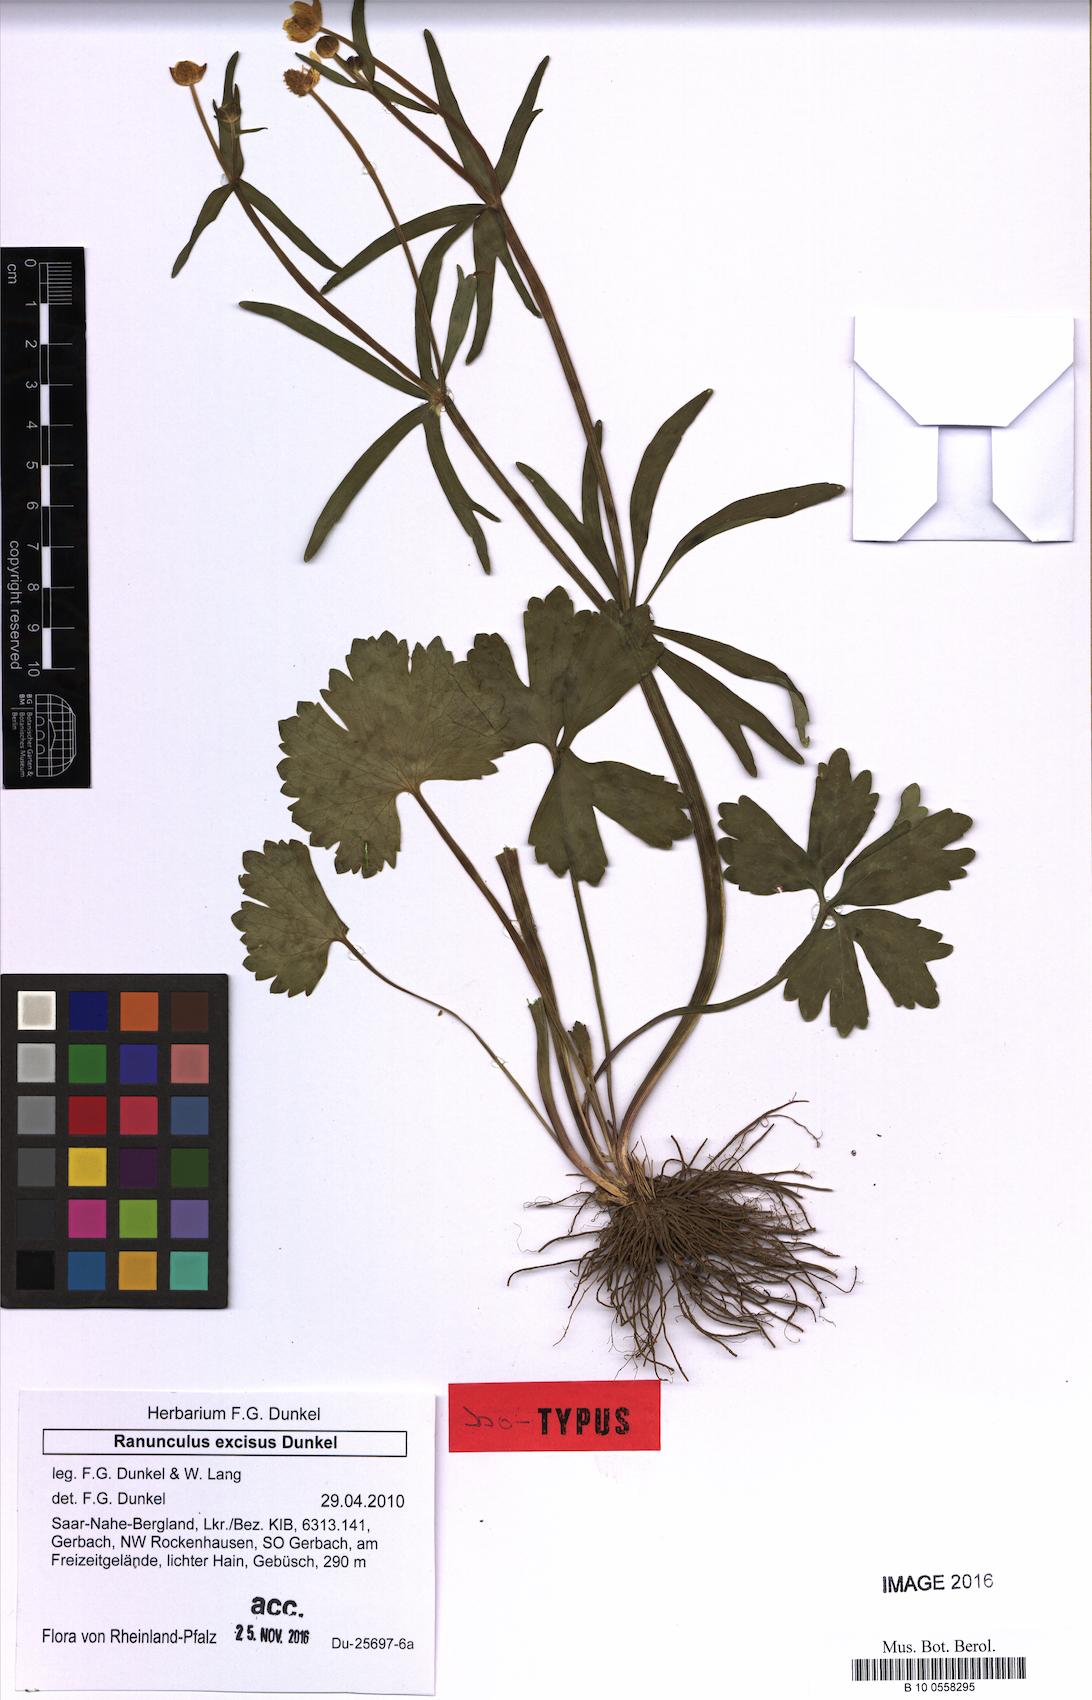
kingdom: Plantae
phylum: Tracheophyta
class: Magnoliopsida
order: Ranunculales
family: Ranunculaceae
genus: Ranunculus
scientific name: Ranunculus excisus
